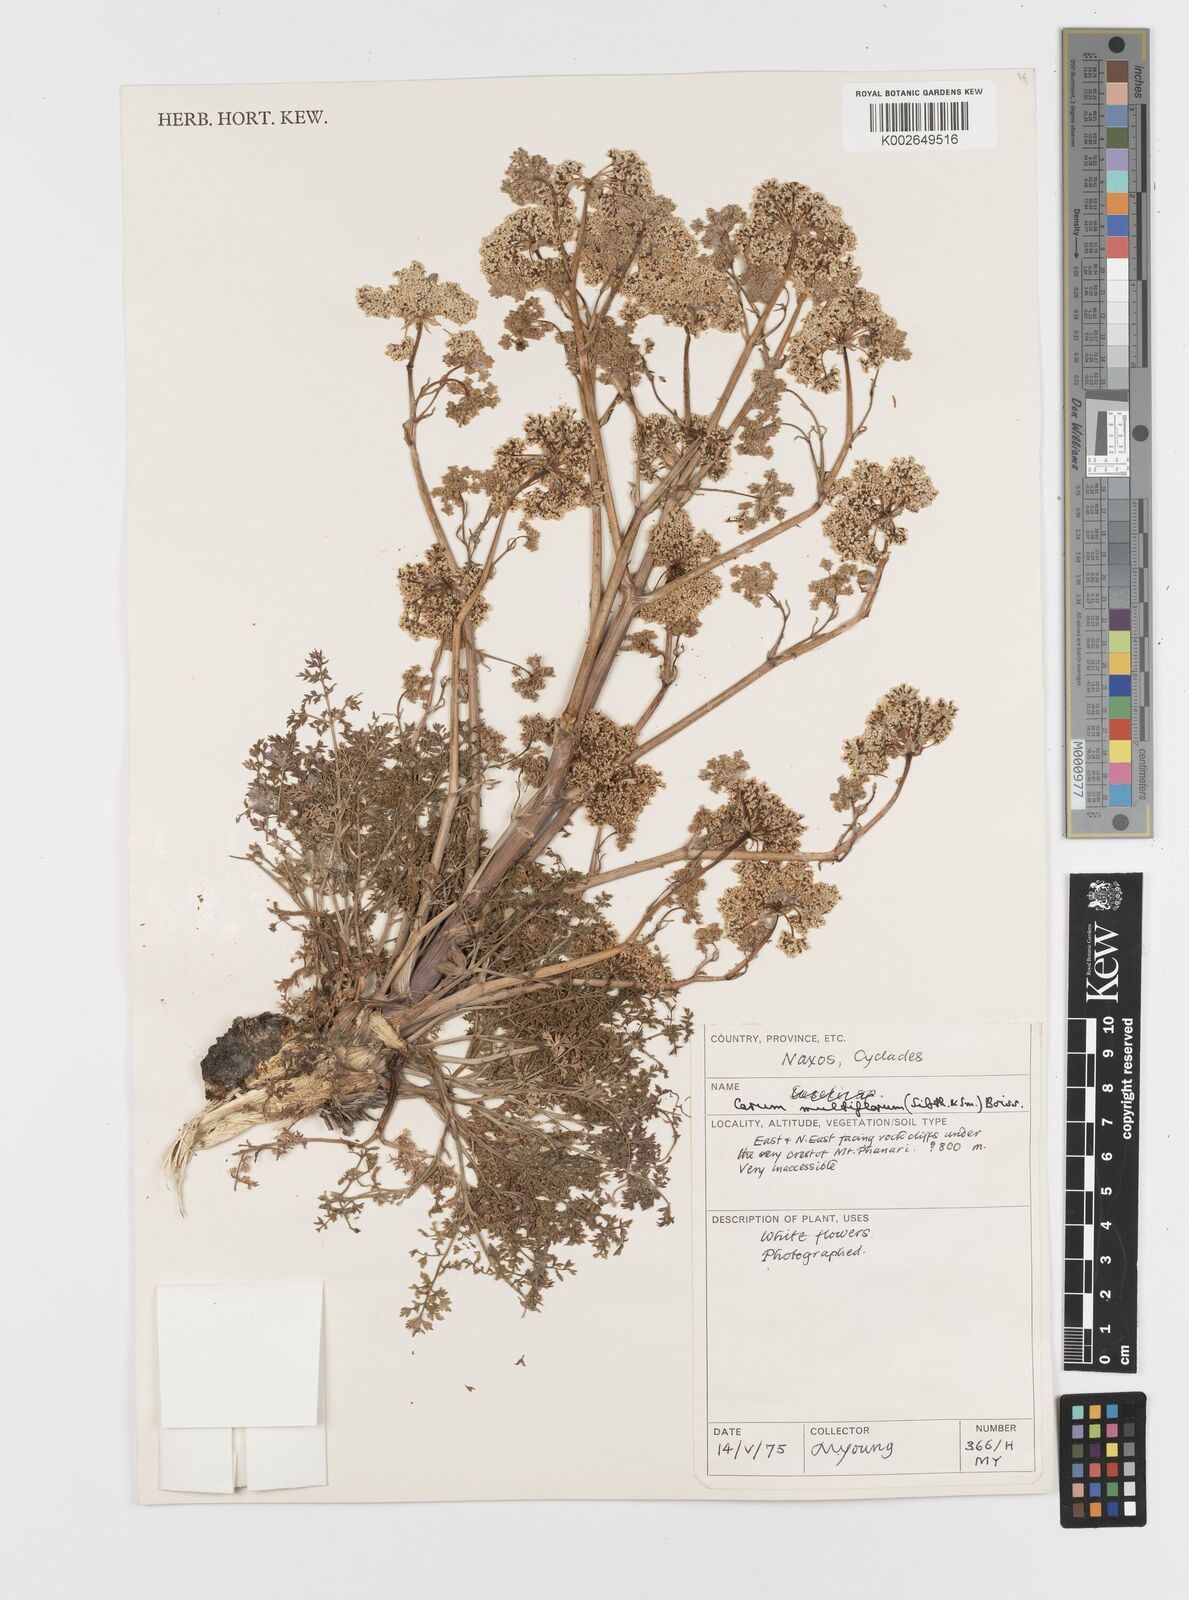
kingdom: Plantae
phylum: Tracheophyta
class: Magnoliopsida
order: Apiales
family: Apiaceae
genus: Hellenocarum
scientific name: Hellenocarum multiflorum
